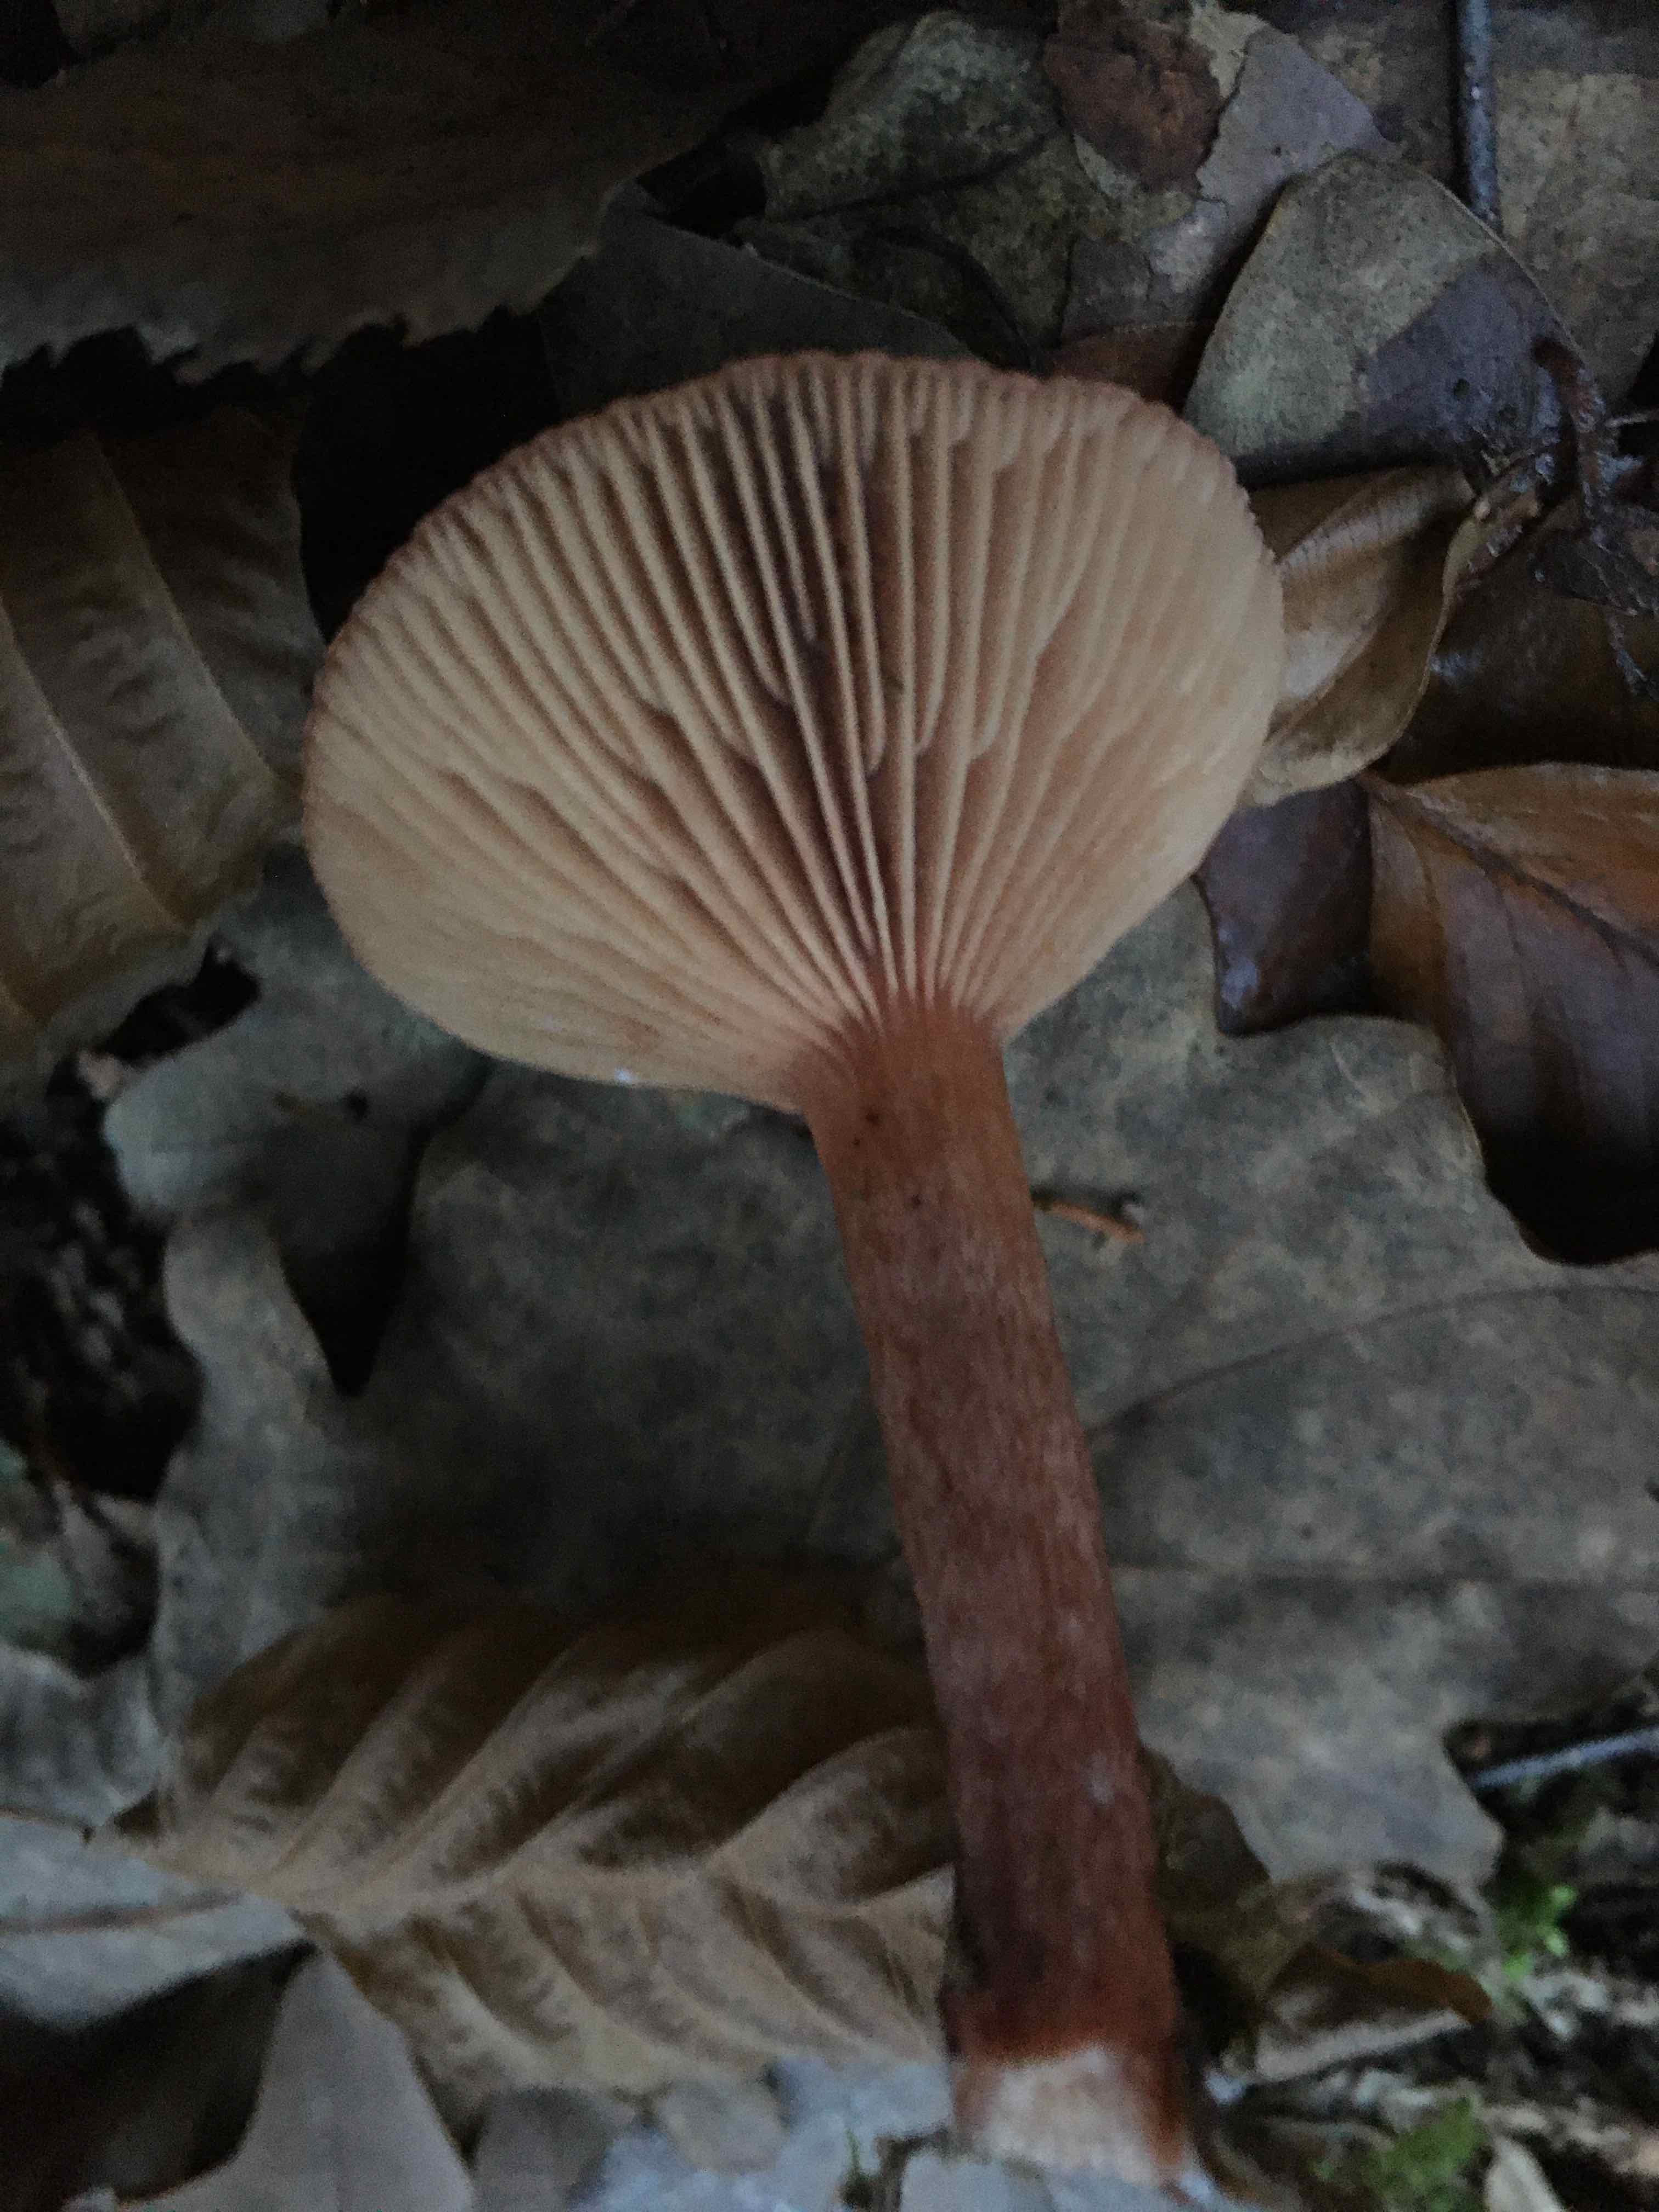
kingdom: Fungi
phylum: Basidiomycota
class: Agaricomycetes
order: Russulales
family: Russulaceae
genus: Lactarius
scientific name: Lactarius hepaticus
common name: leverbrun mælkehat
